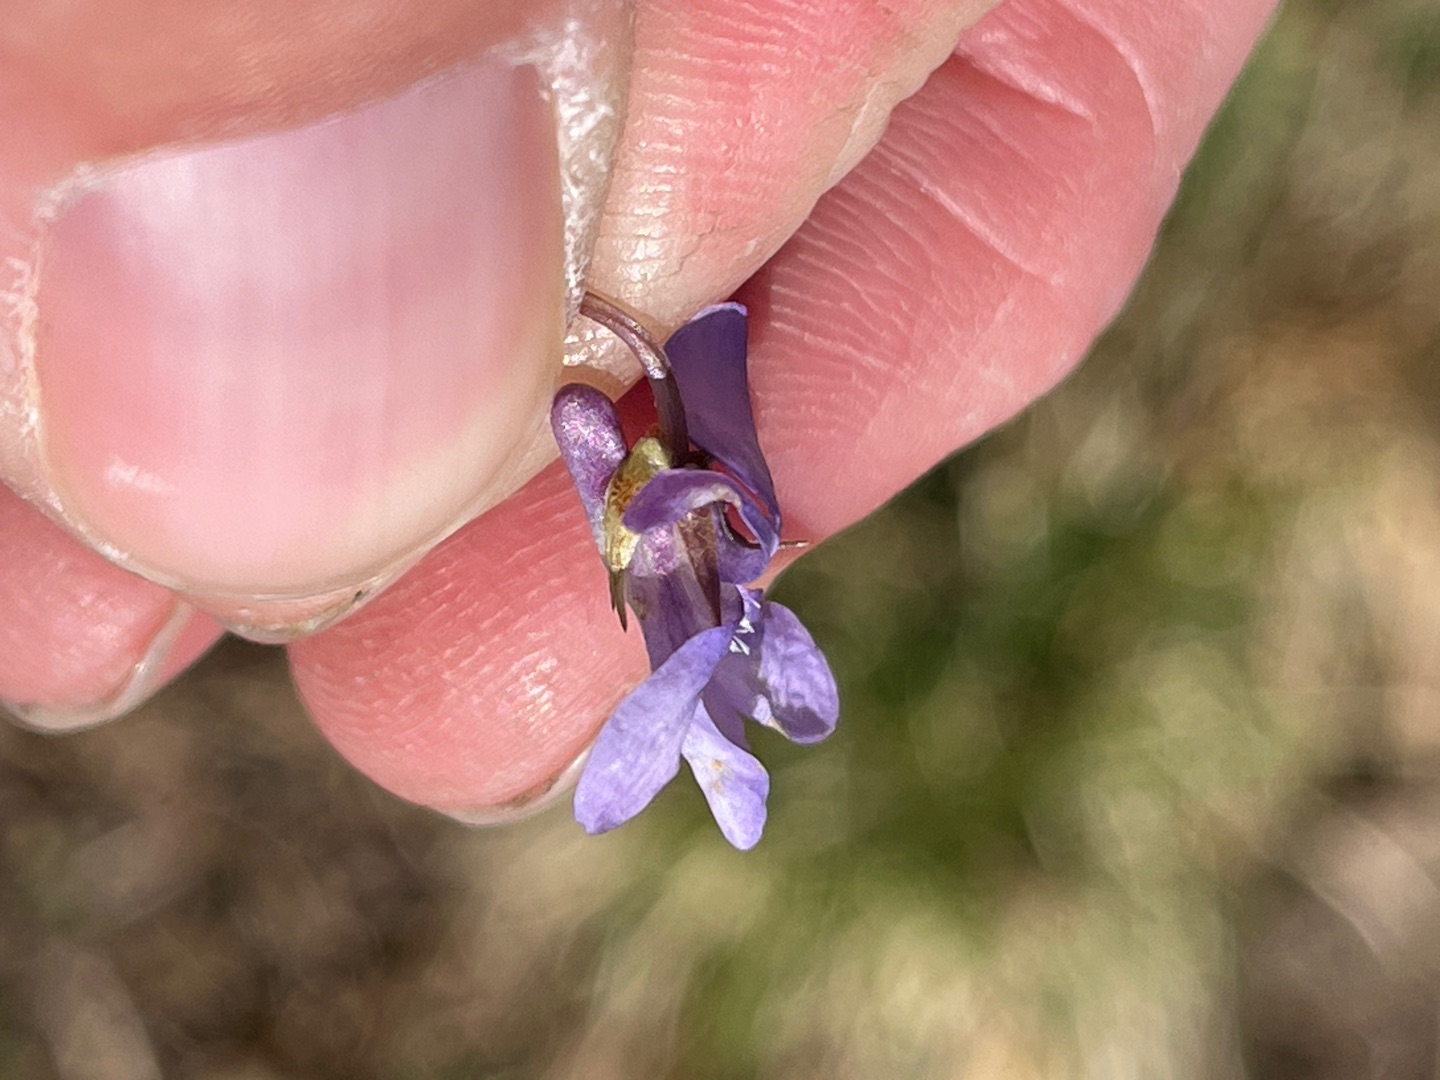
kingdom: Plantae
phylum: Tracheophyta
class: Magnoliopsida
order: Malpighiales
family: Violaceae
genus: Viola
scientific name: Viola reichenbachiana
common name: Skov-viol
